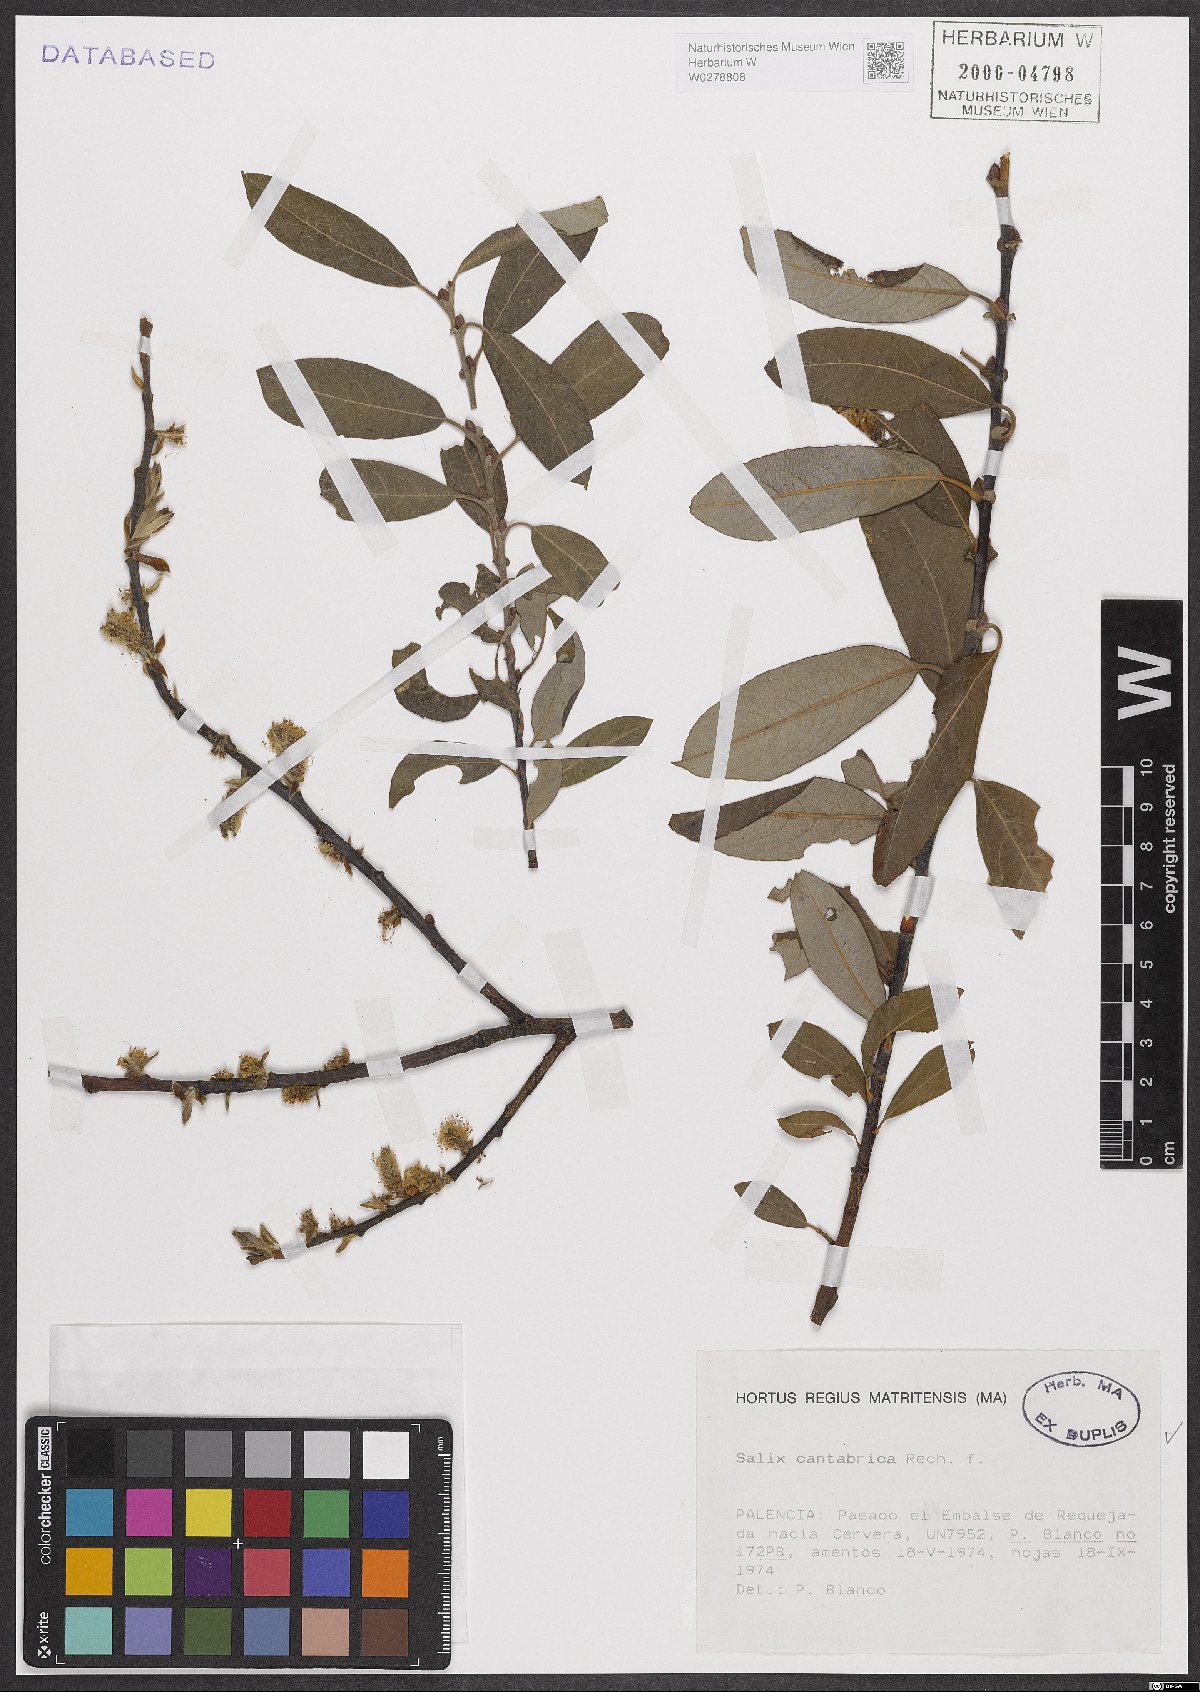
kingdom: Plantae
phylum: Tracheophyta
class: Magnoliopsida
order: Malpighiales
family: Salicaceae
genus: Salix
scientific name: Salix cantabrica
